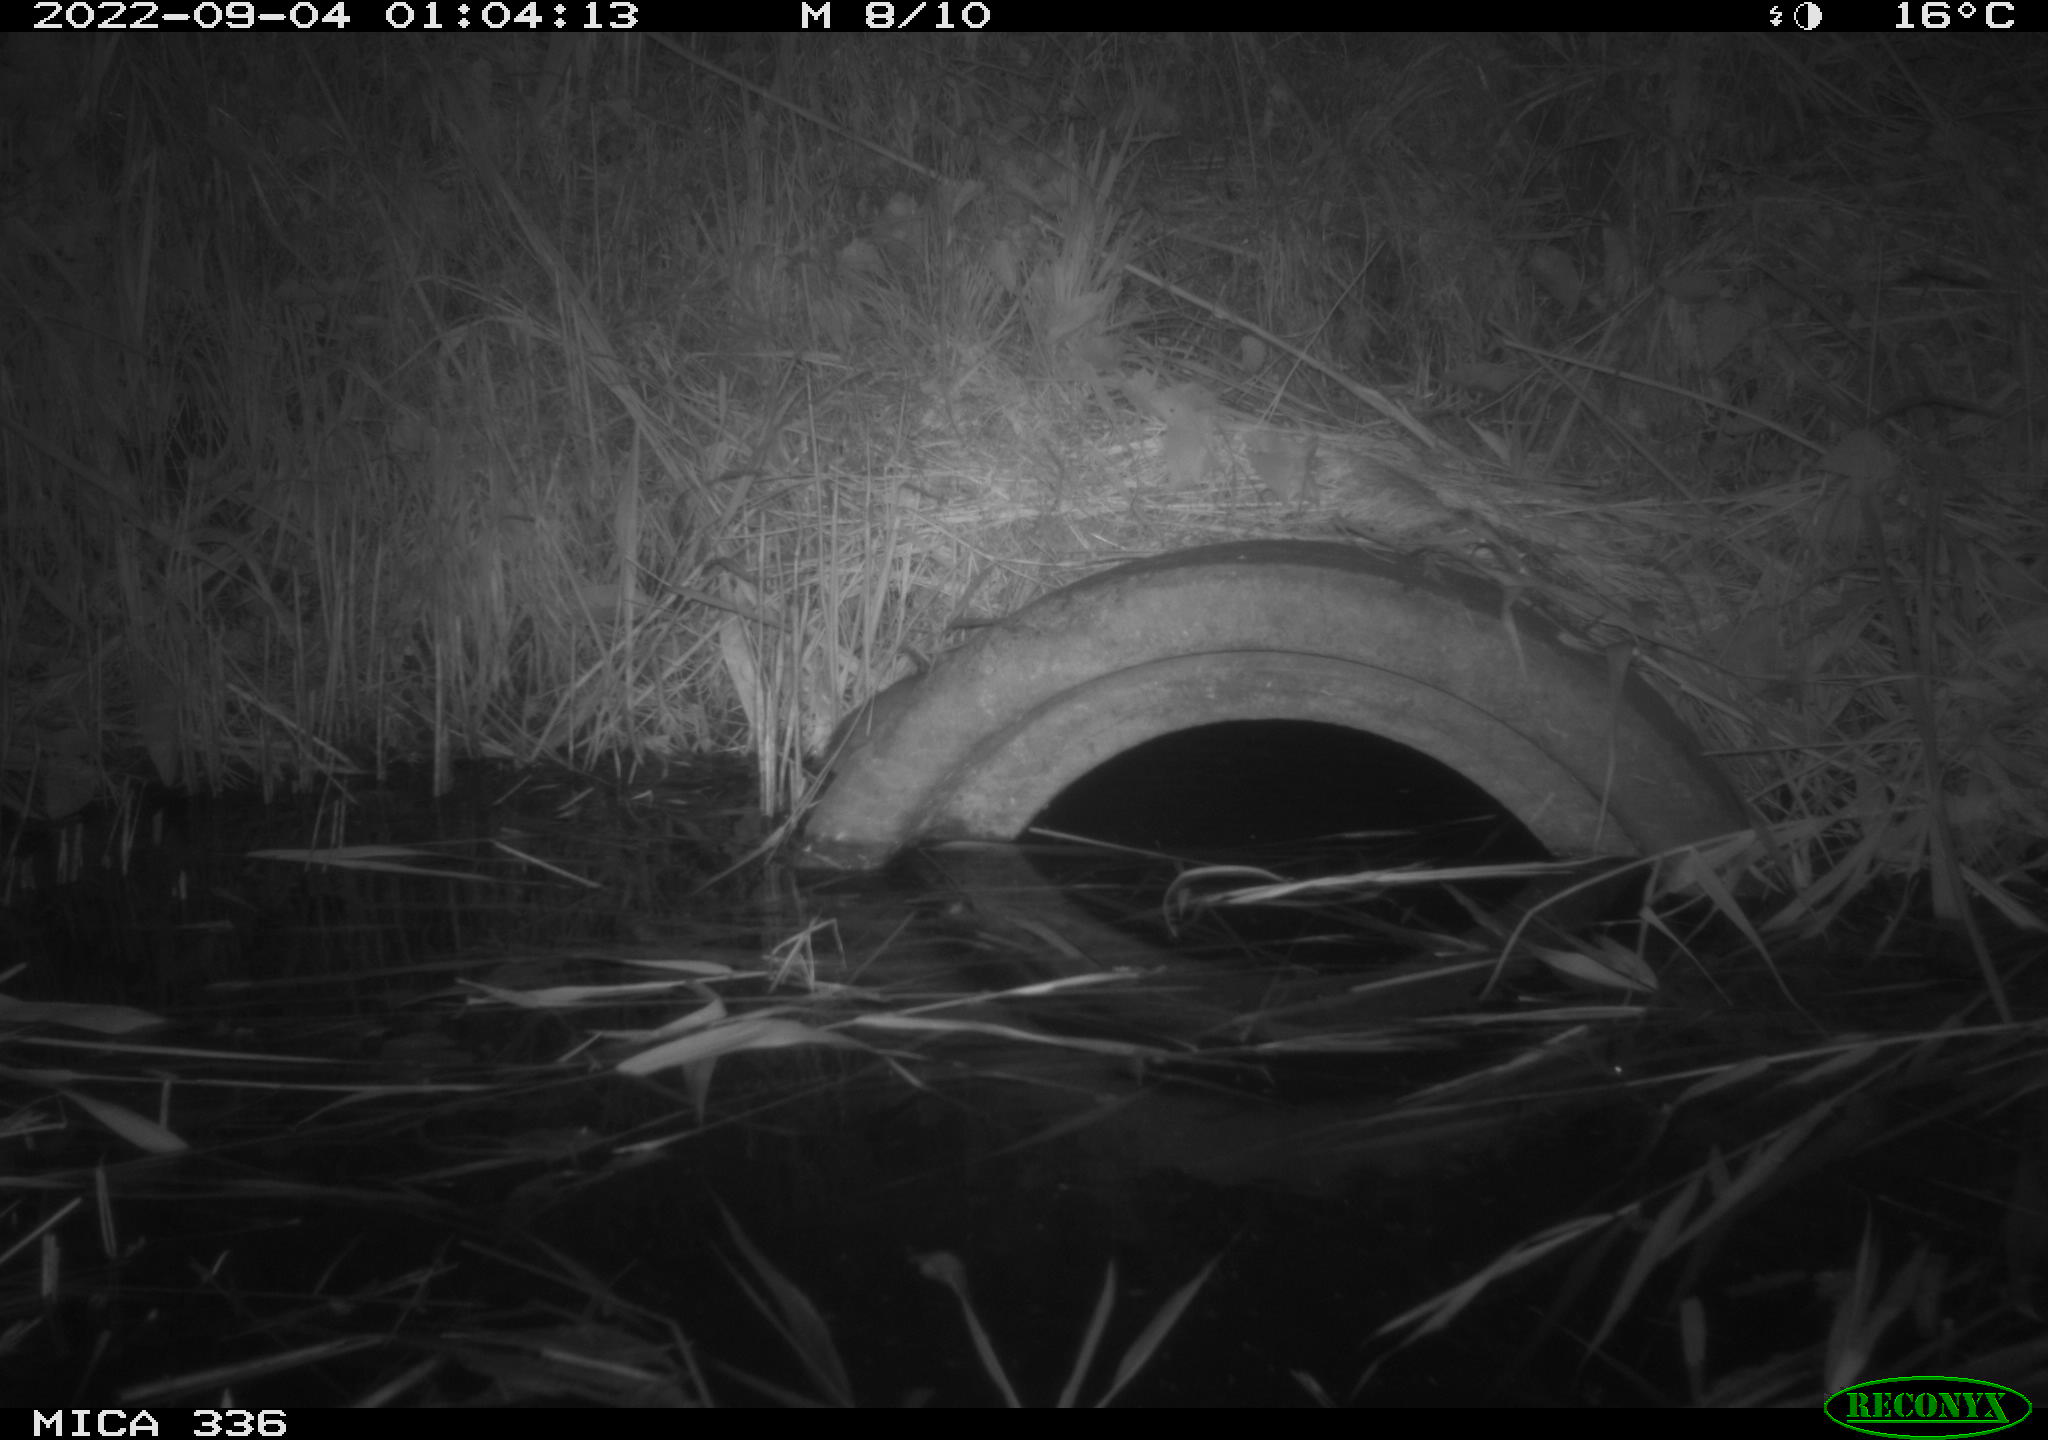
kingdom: Animalia
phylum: Chordata
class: Mammalia
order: Rodentia
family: Muridae
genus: Rattus
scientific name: Rattus norvegicus
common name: Brown rat
